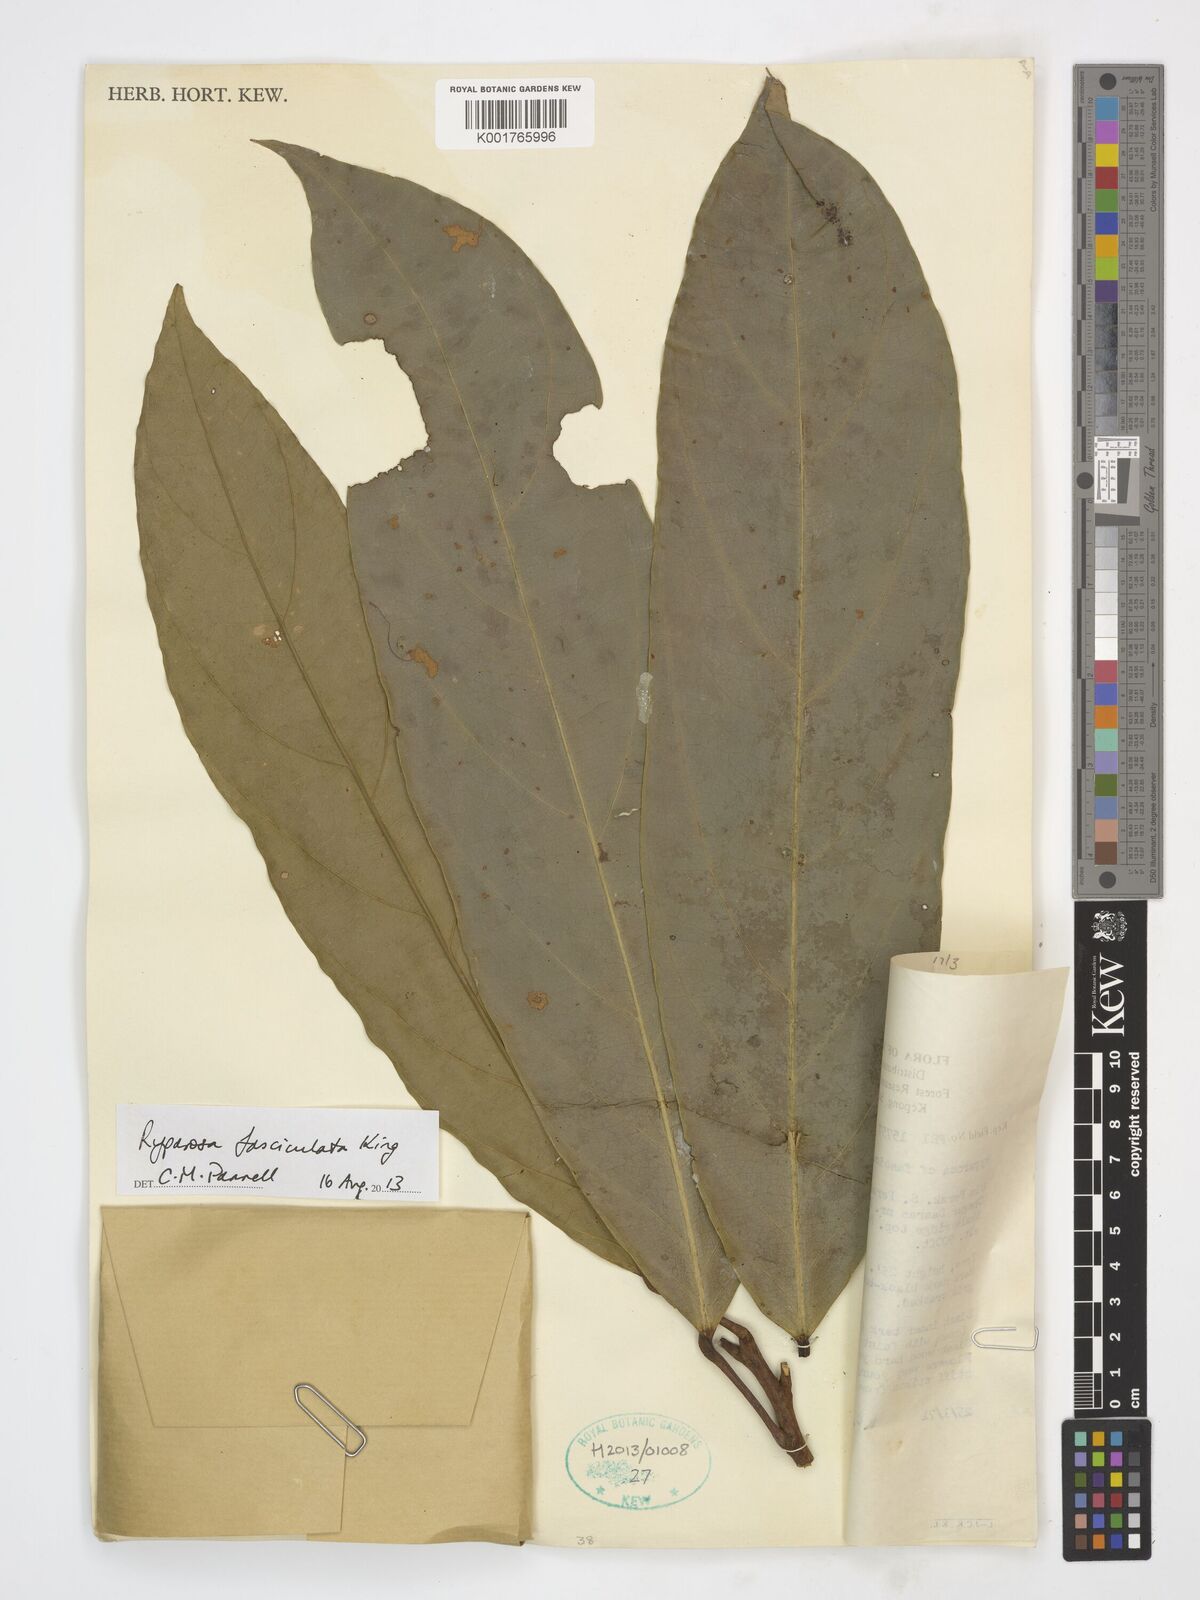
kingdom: Plantae
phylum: Tracheophyta
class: Magnoliopsida
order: Malpighiales
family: Achariaceae
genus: Ryparosa
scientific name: Ryparosa fasciculata
